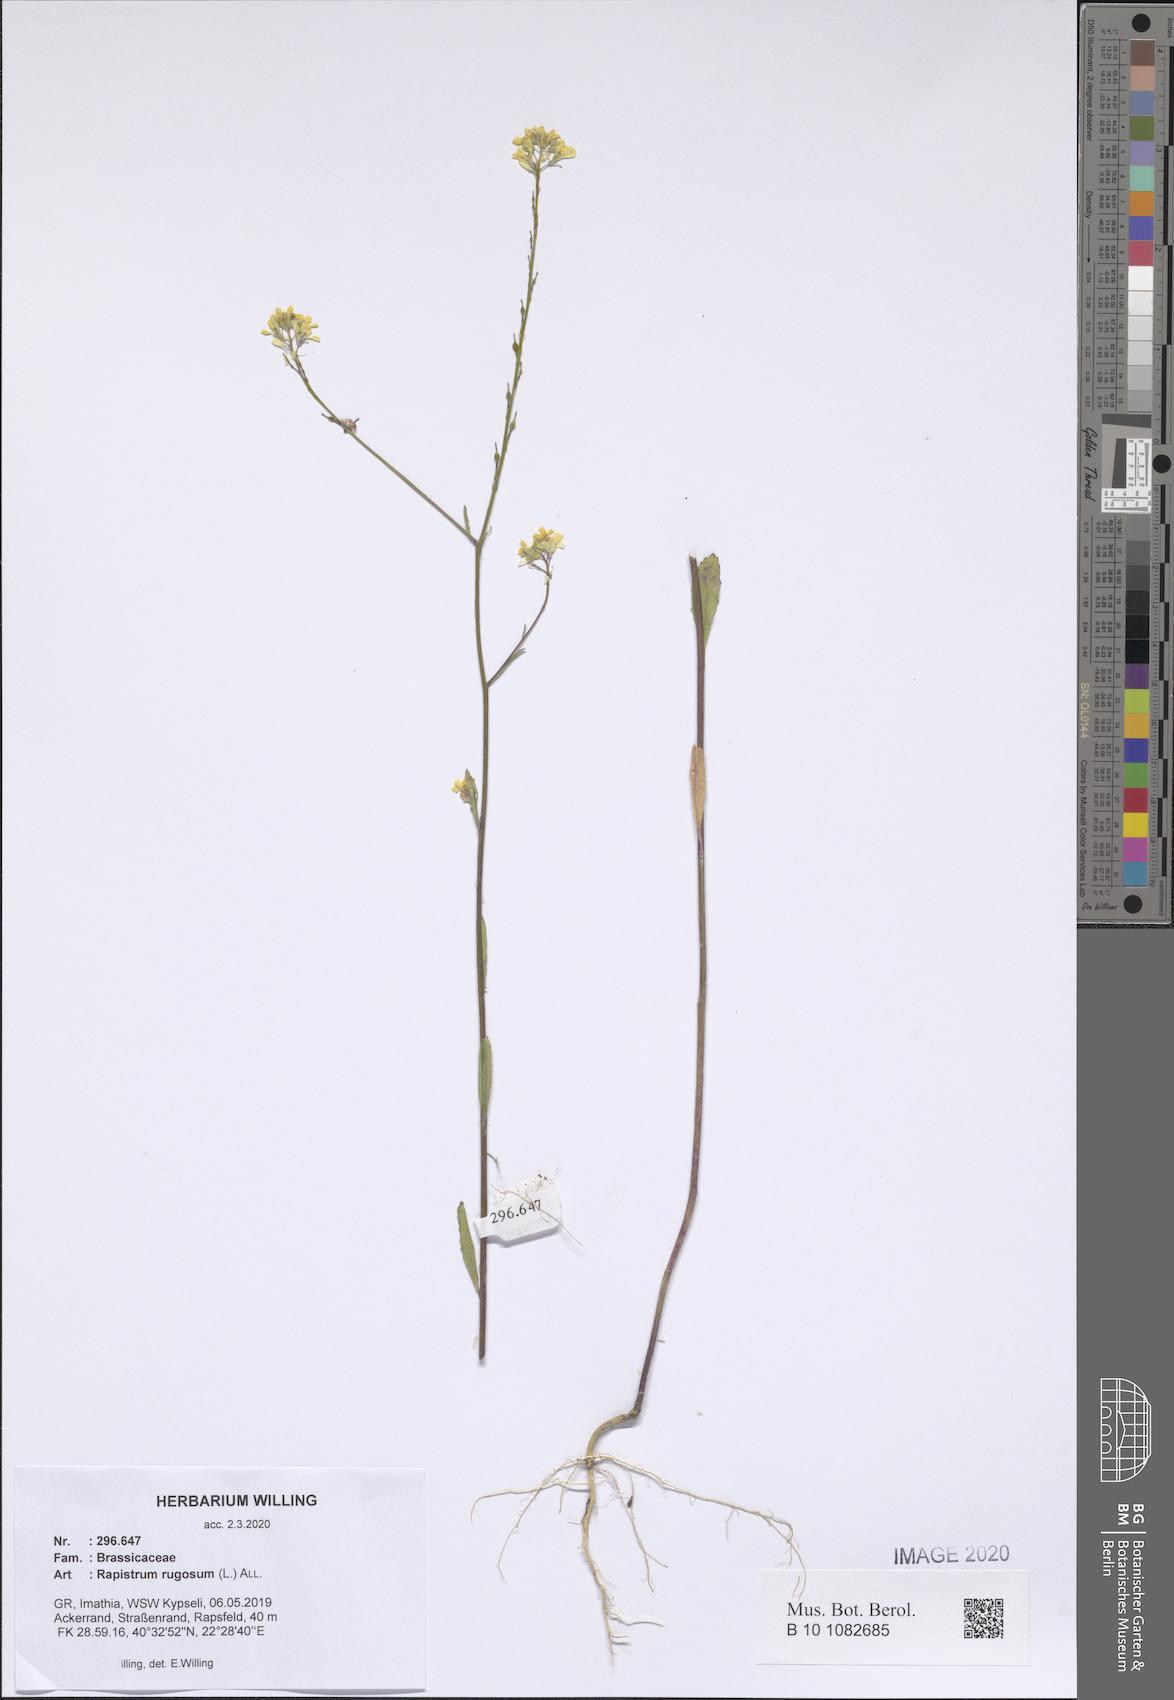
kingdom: Plantae
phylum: Tracheophyta
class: Magnoliopsida
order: Brassicales
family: Brassicaceae
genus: Rapistrum
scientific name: Rapistrum rugosum
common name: Annual bastardcabbage
